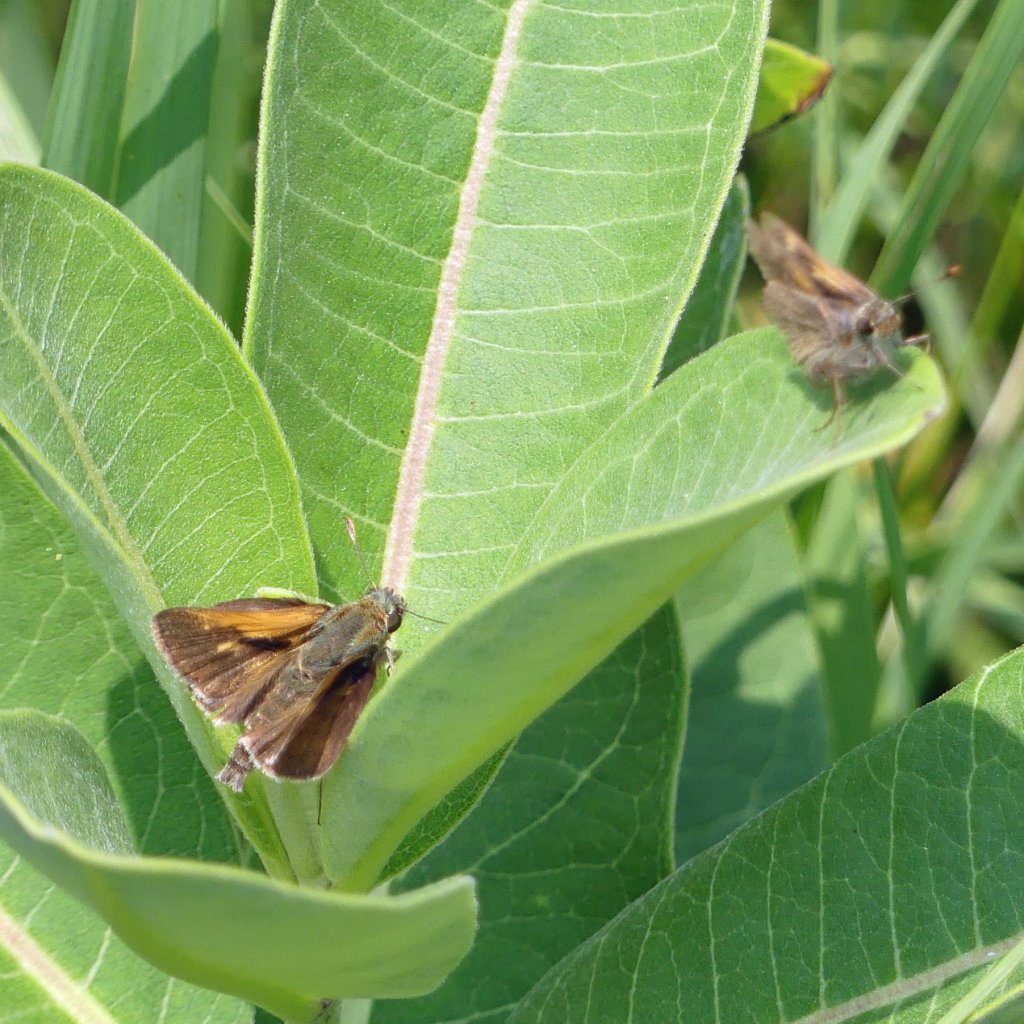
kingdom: Animalia
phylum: Arthropoda
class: Insecta
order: Lepidoptera
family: Hesperiidae
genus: Polites
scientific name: Polites themistocles
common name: Tawny-edged Skipper
